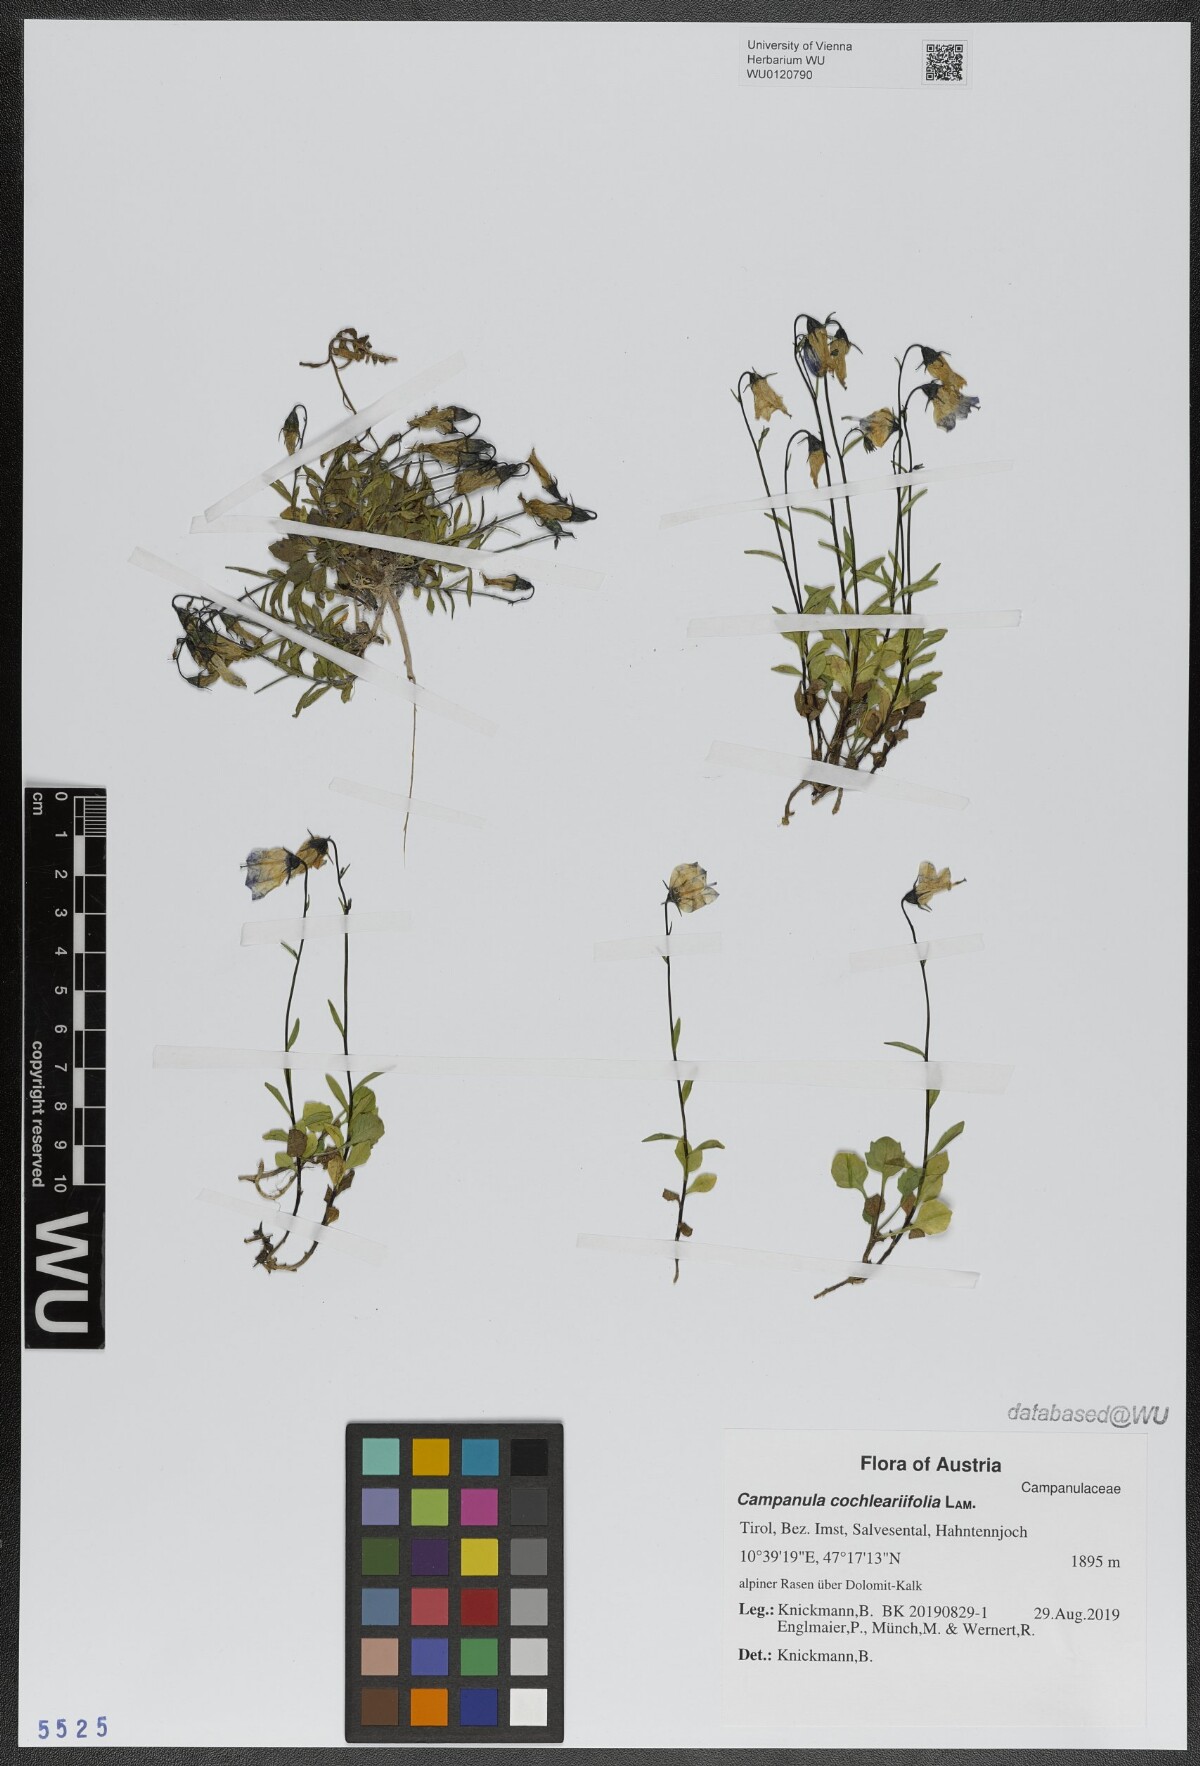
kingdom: Plantae
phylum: Tracheophyta
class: Magnoliopsida
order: Asterales
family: Campanulaceae
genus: Campanula
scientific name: Campanula cochleariifolia
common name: Fairies'-thimbles
